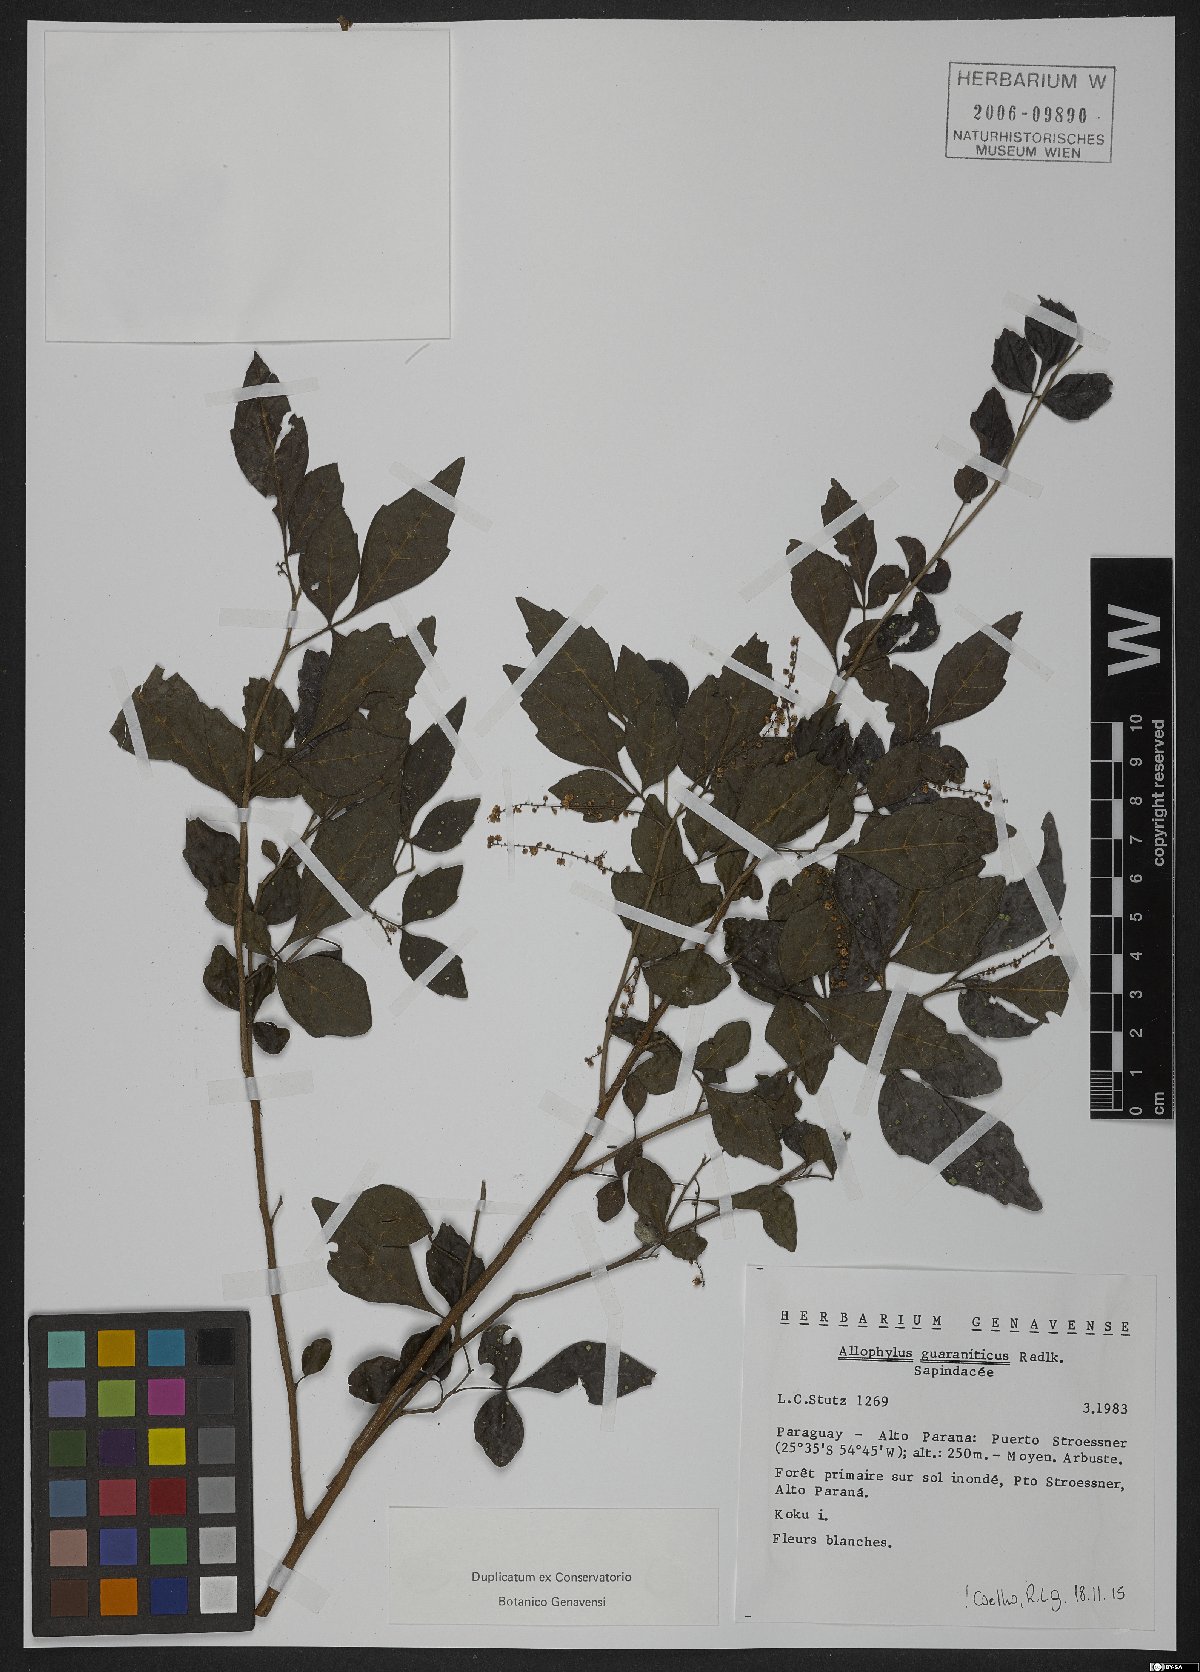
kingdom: Plantae
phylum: Tracheophyta
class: Magnoliopsida
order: Sapindales
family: Sapindaceae
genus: Allophylus
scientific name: Allophylus guaraniticus
